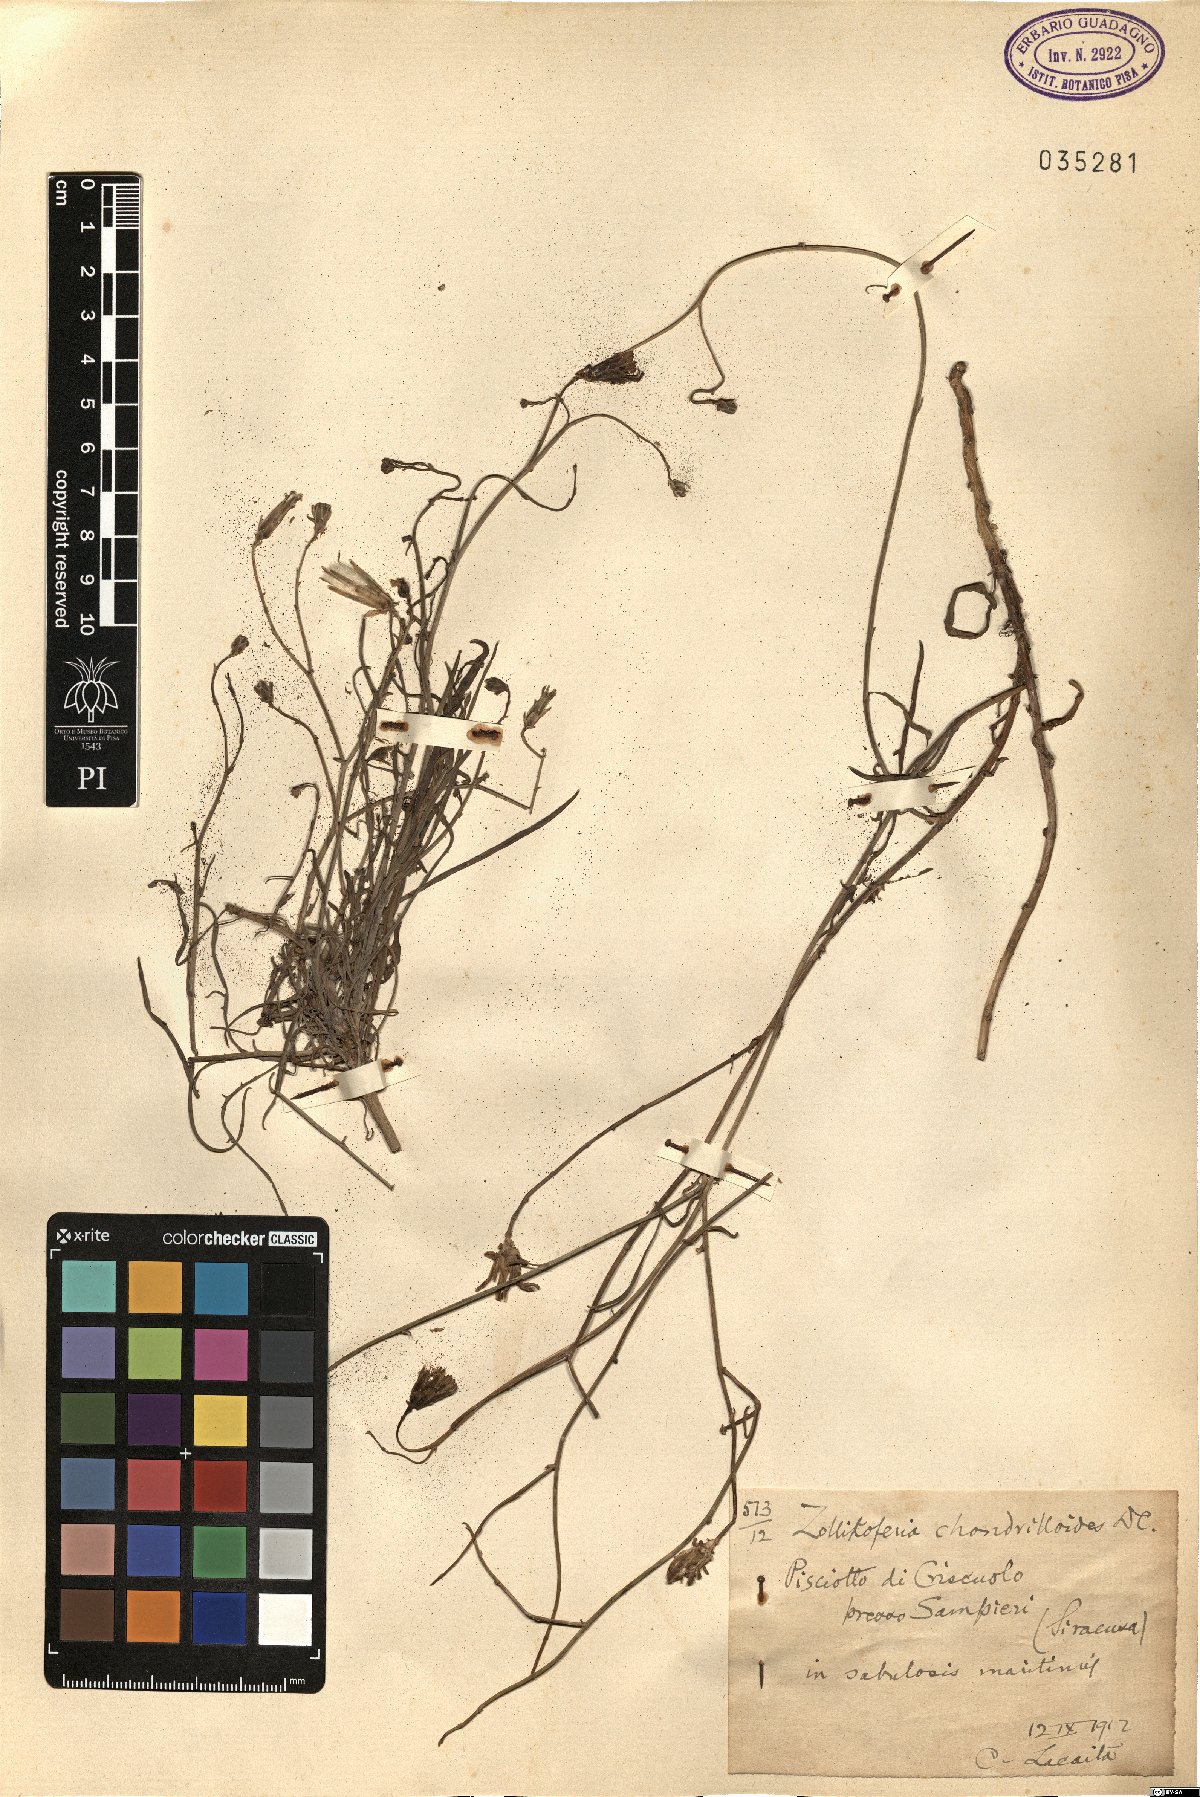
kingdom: Plantae
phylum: Tracheophyta
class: Magnoliopsida
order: Asterales
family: Asteraceae
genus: Launaea
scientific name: Launaea fragilis
